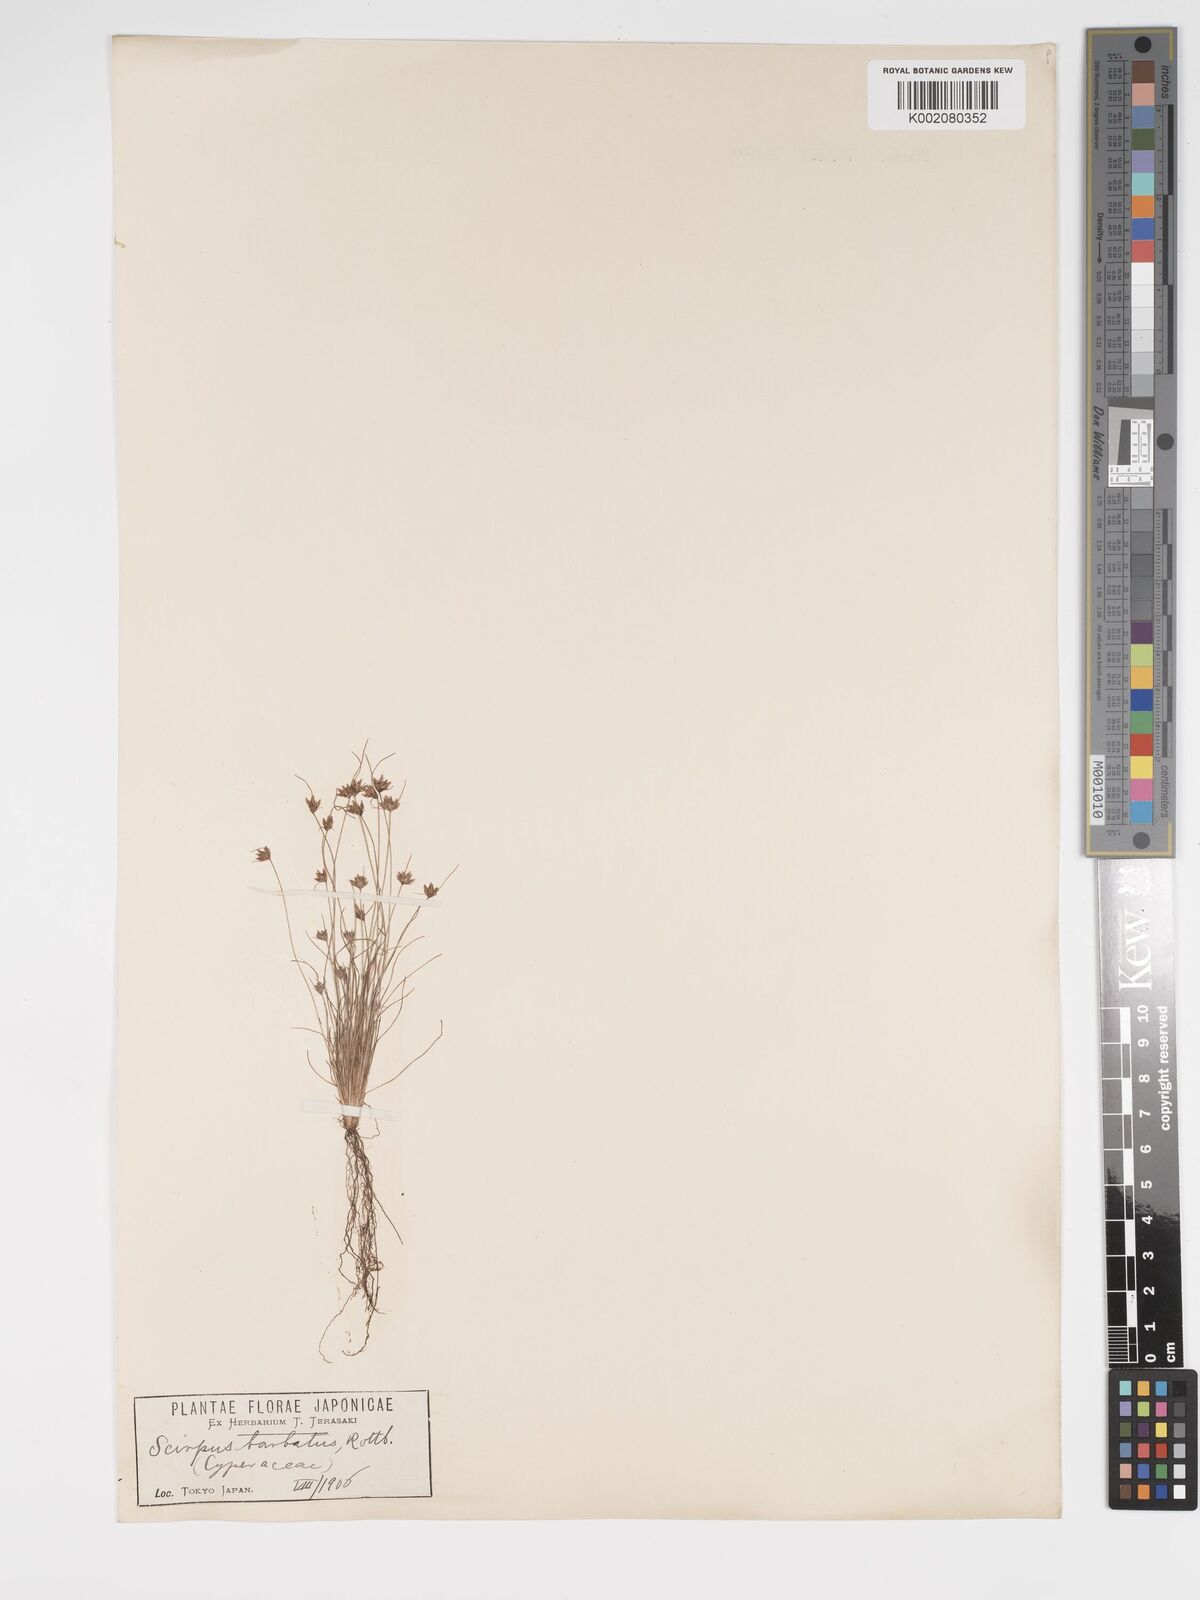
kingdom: Plantae
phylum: Tracheophyta
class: Liliopsida
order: Poales
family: Cyperaceae
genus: Bulbostylis
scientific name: Bulbostylis barbata
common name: Watergrass
